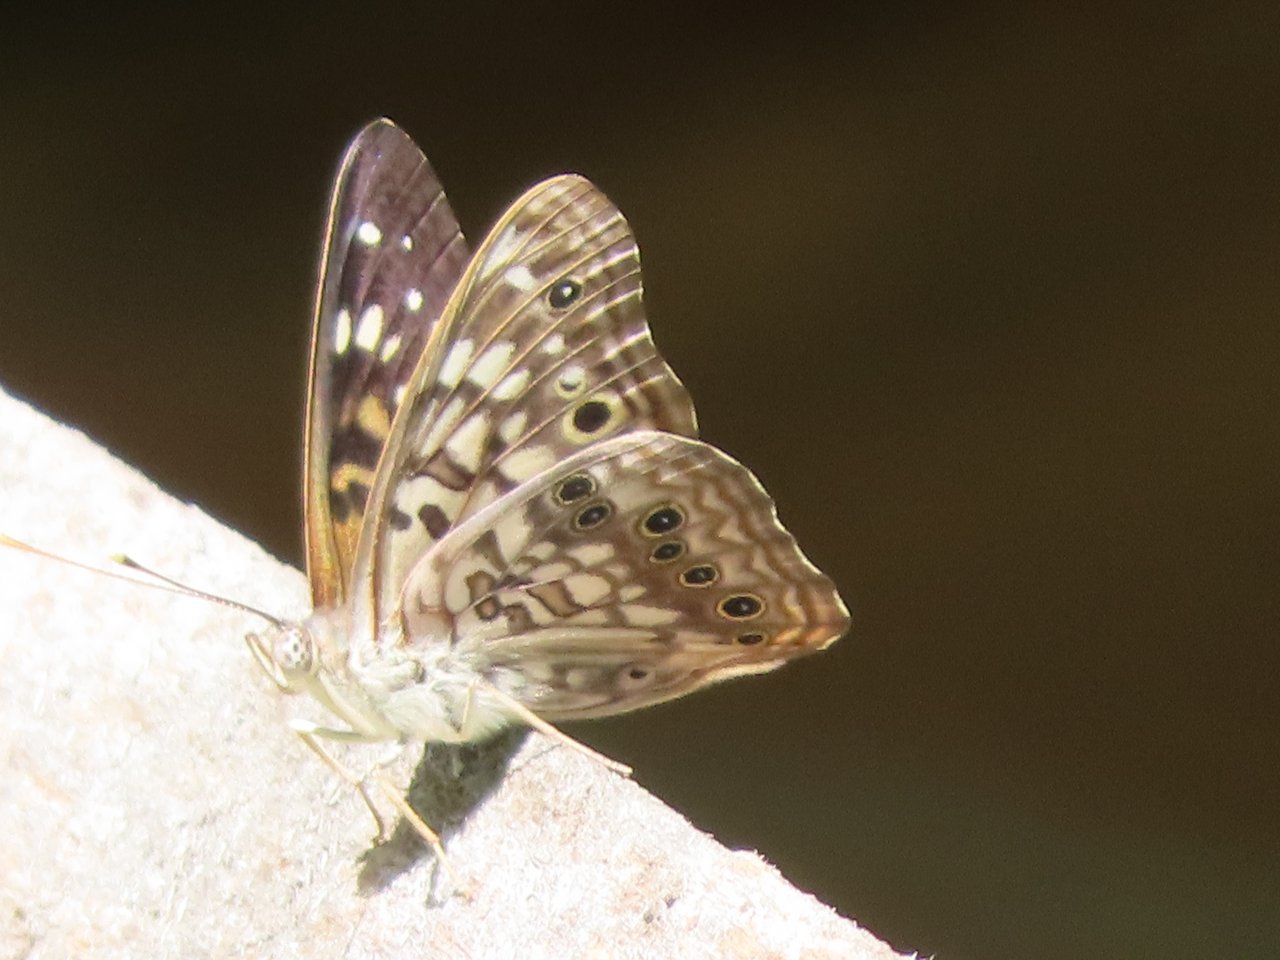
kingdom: Animalia
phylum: Arthropoda
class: Insecta
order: Lepidoptera
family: Nymphalidae
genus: Asterocampa
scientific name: Asterocampa celtis
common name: Hackberry Emperor
